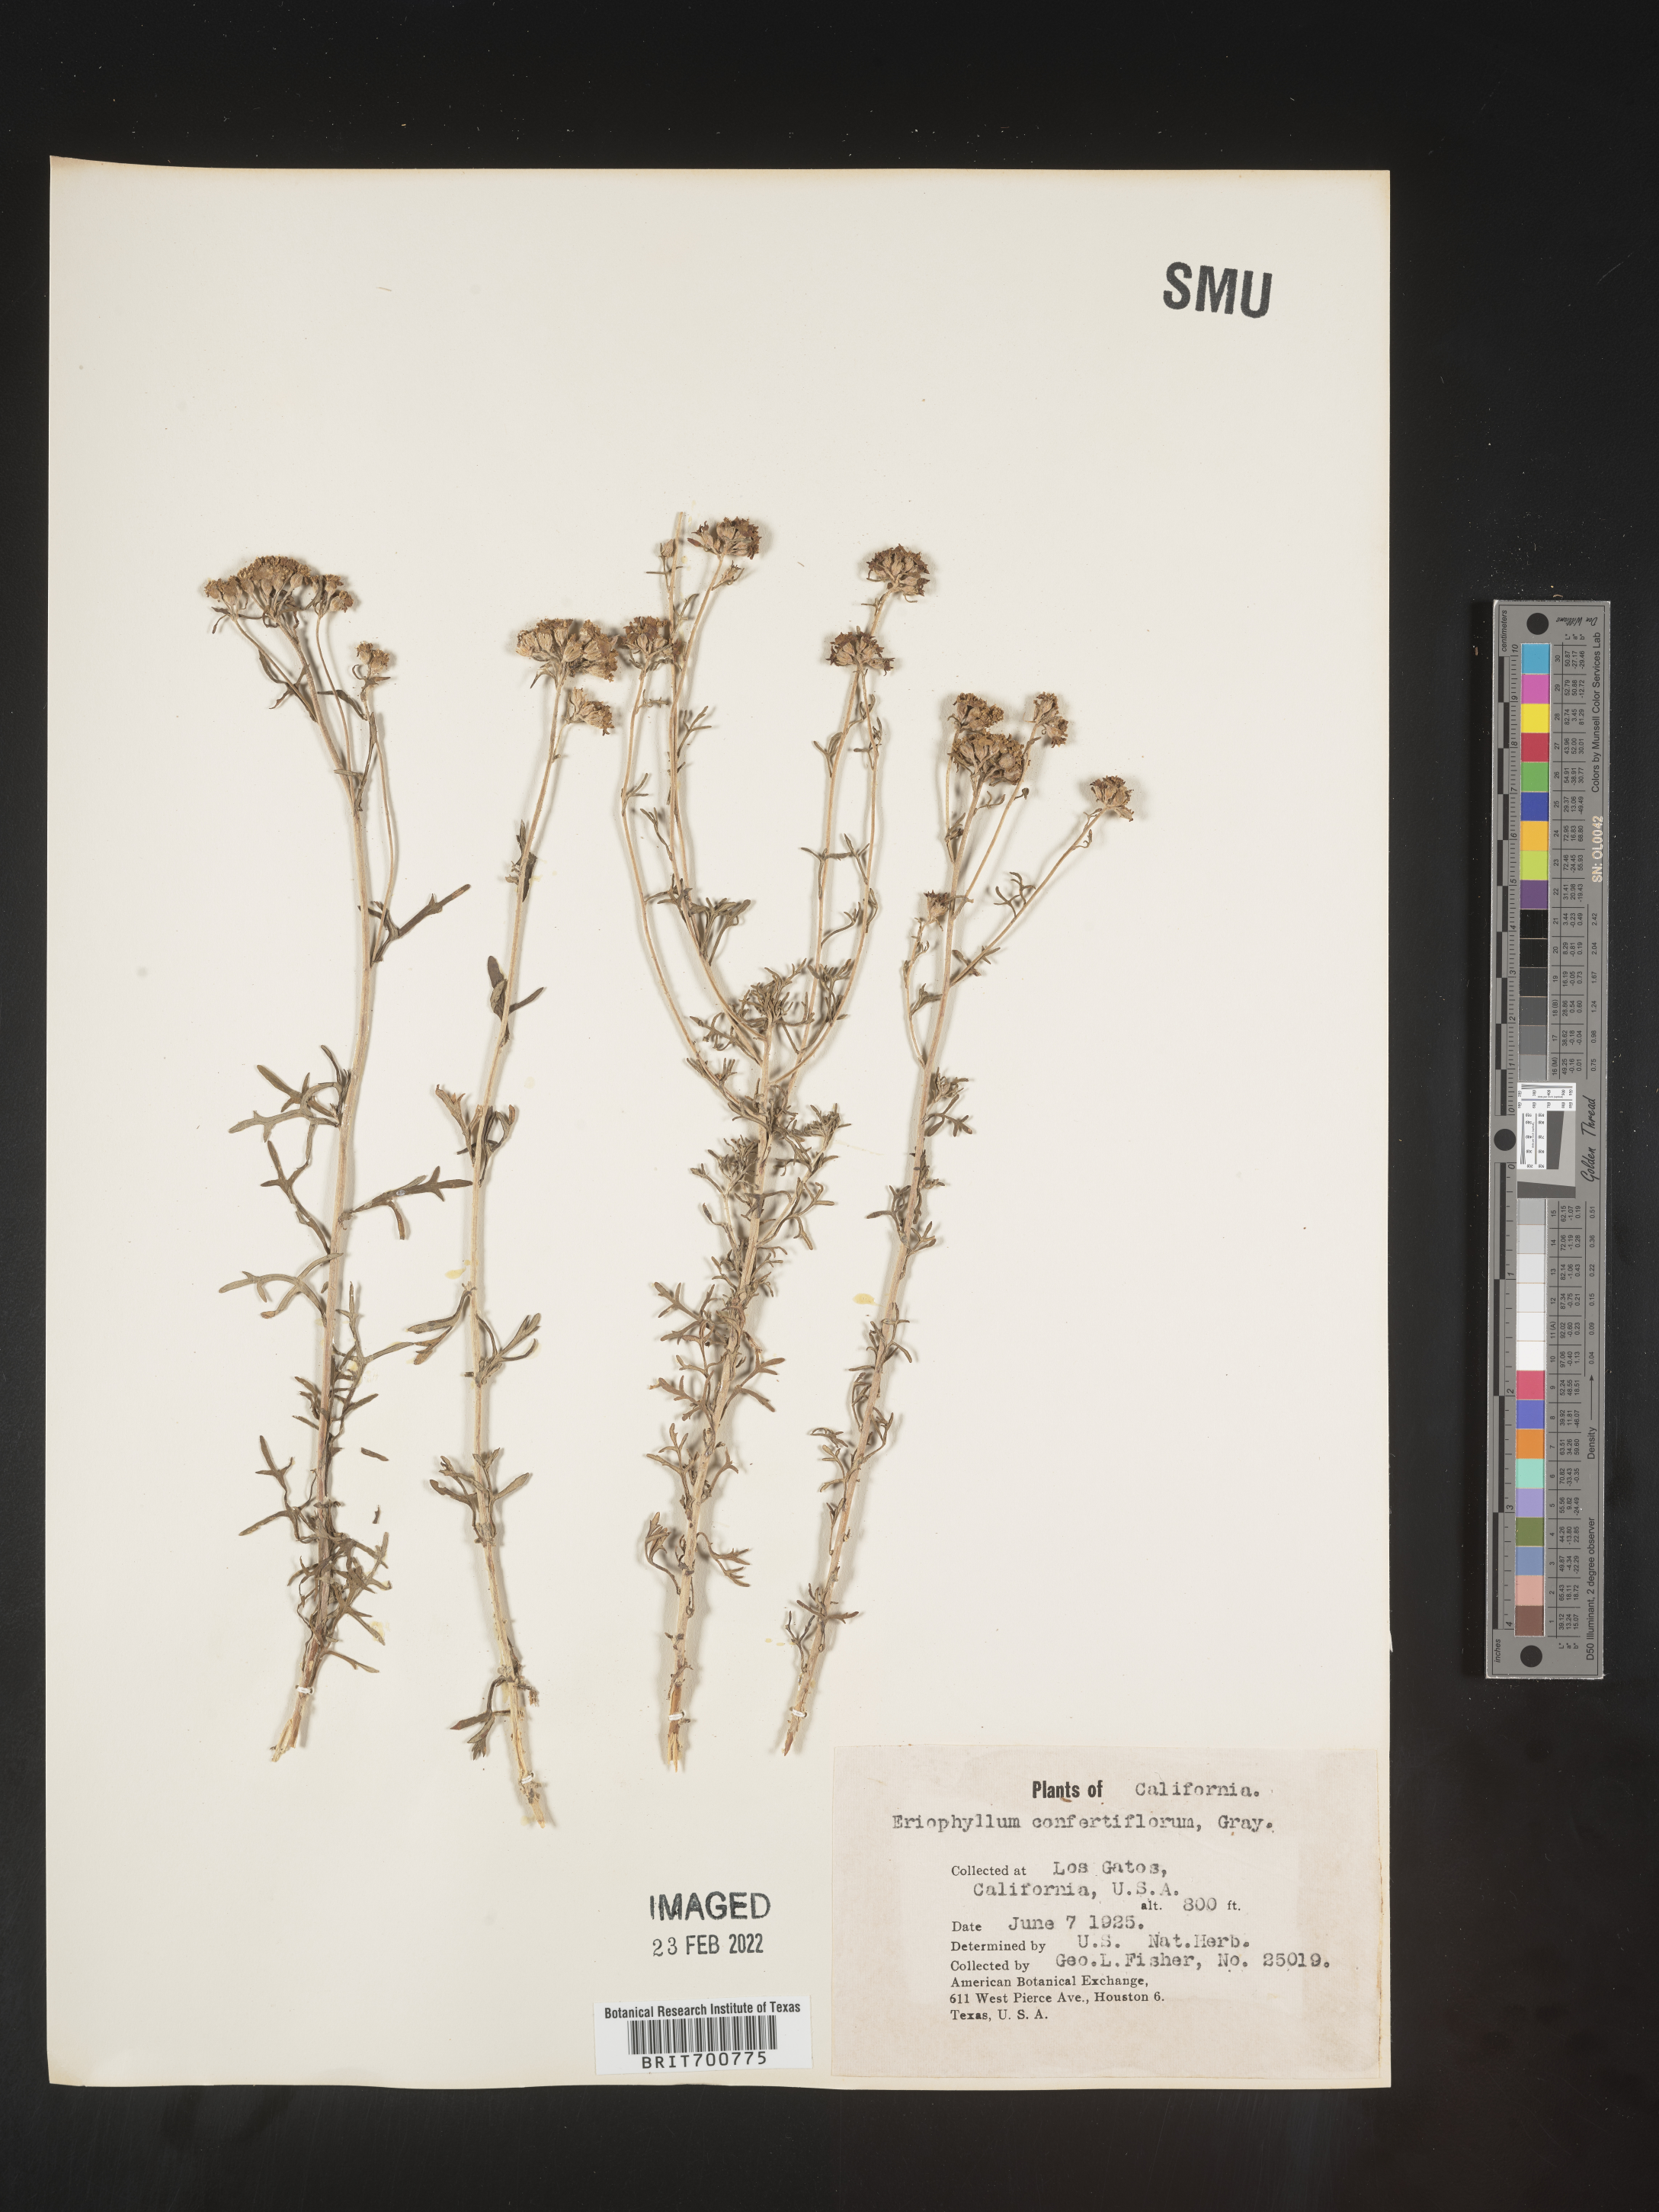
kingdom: Plantae
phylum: Tracheophyta
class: Magnoliopsida
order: Asterales
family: Asteraceae
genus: Eriophyllum
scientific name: Eriophyllum confertiflorum
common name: Golden-yarrow
